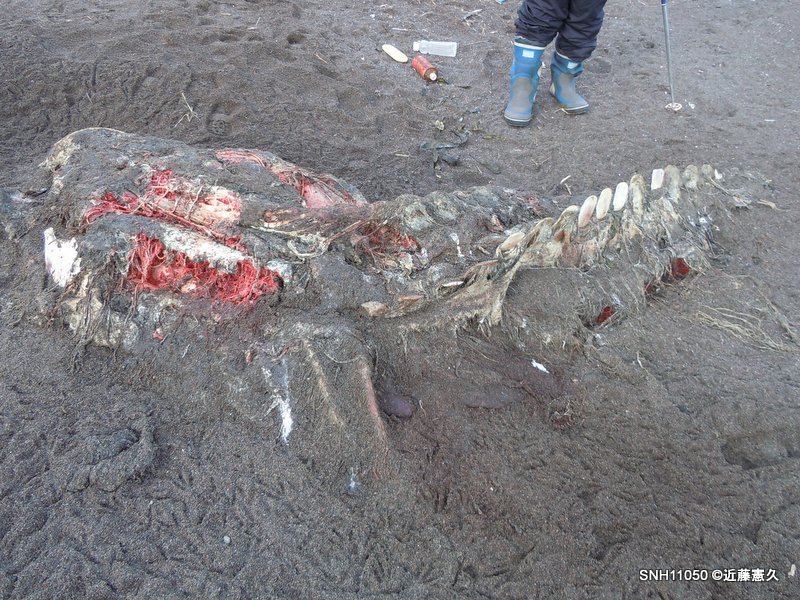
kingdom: Animalia
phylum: Chordata
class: Mammalia
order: Cetacea
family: Balaenopteridae
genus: Balaenoptera
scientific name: Balaenoptera acutorostrata
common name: Minke whale
